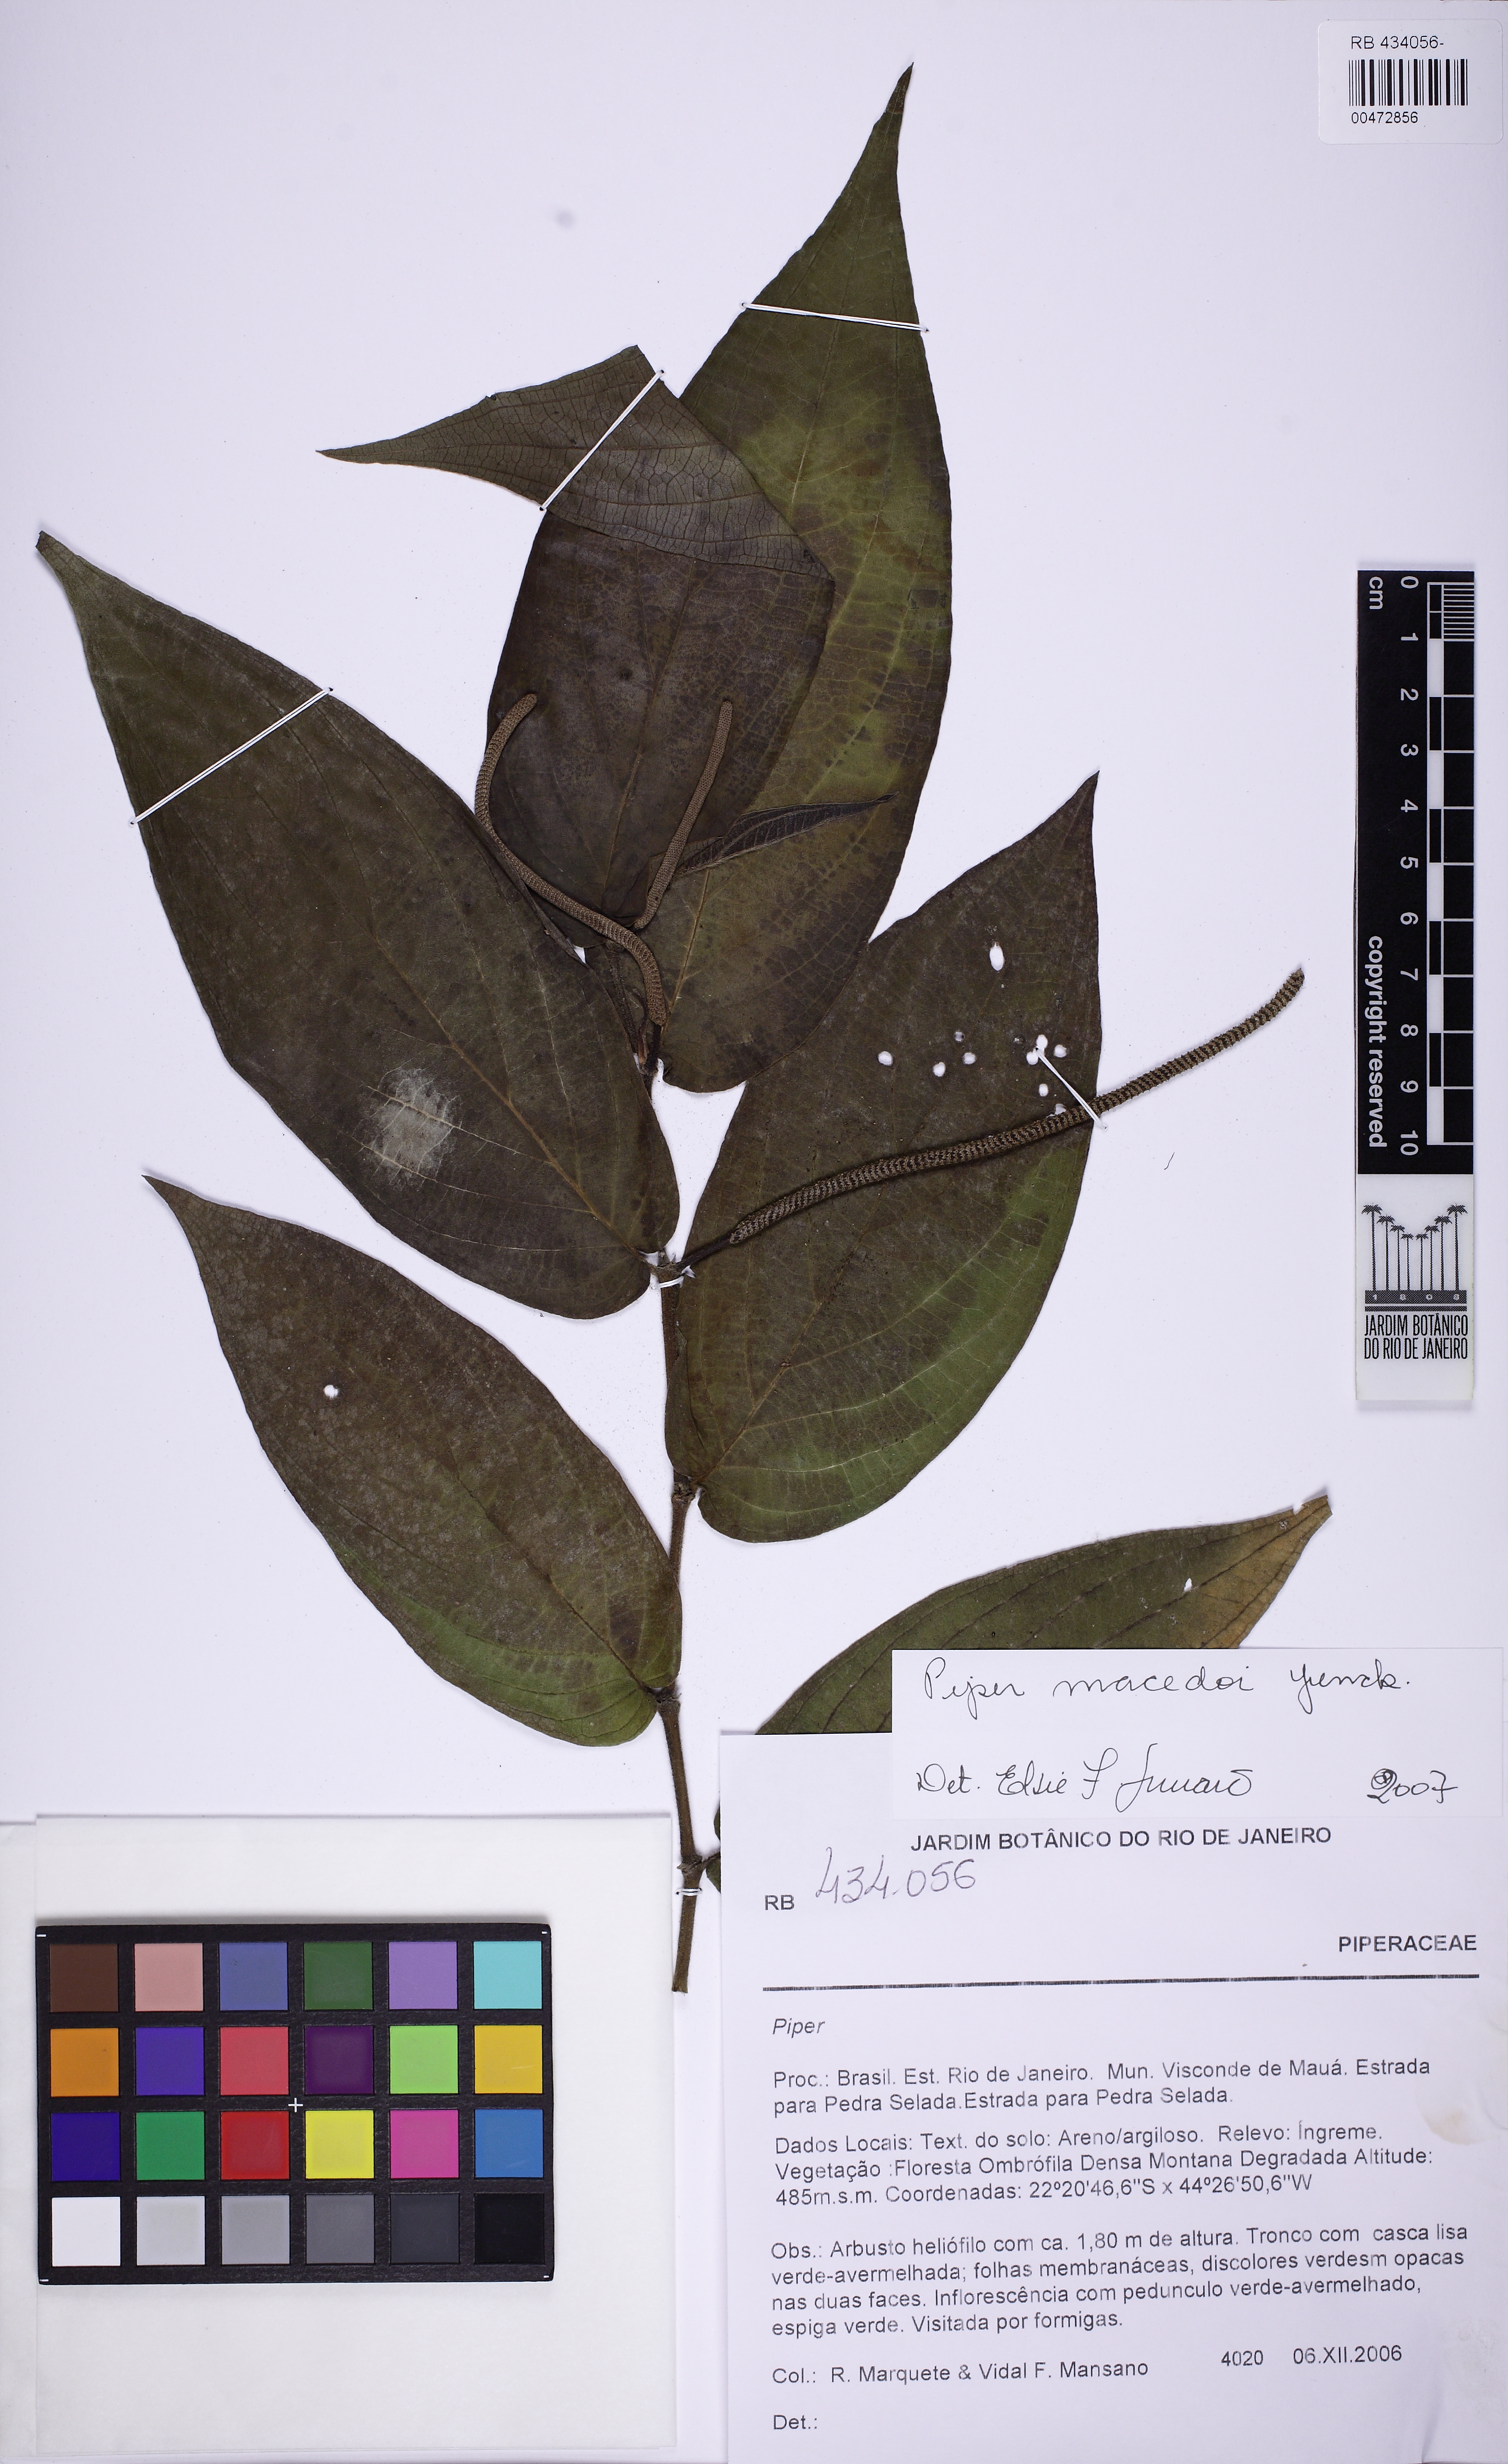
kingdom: Plantae
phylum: Tracheophyta
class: Magnoliopsida
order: Piperales
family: Piperaceae
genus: Piper
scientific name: Piper macedoi
